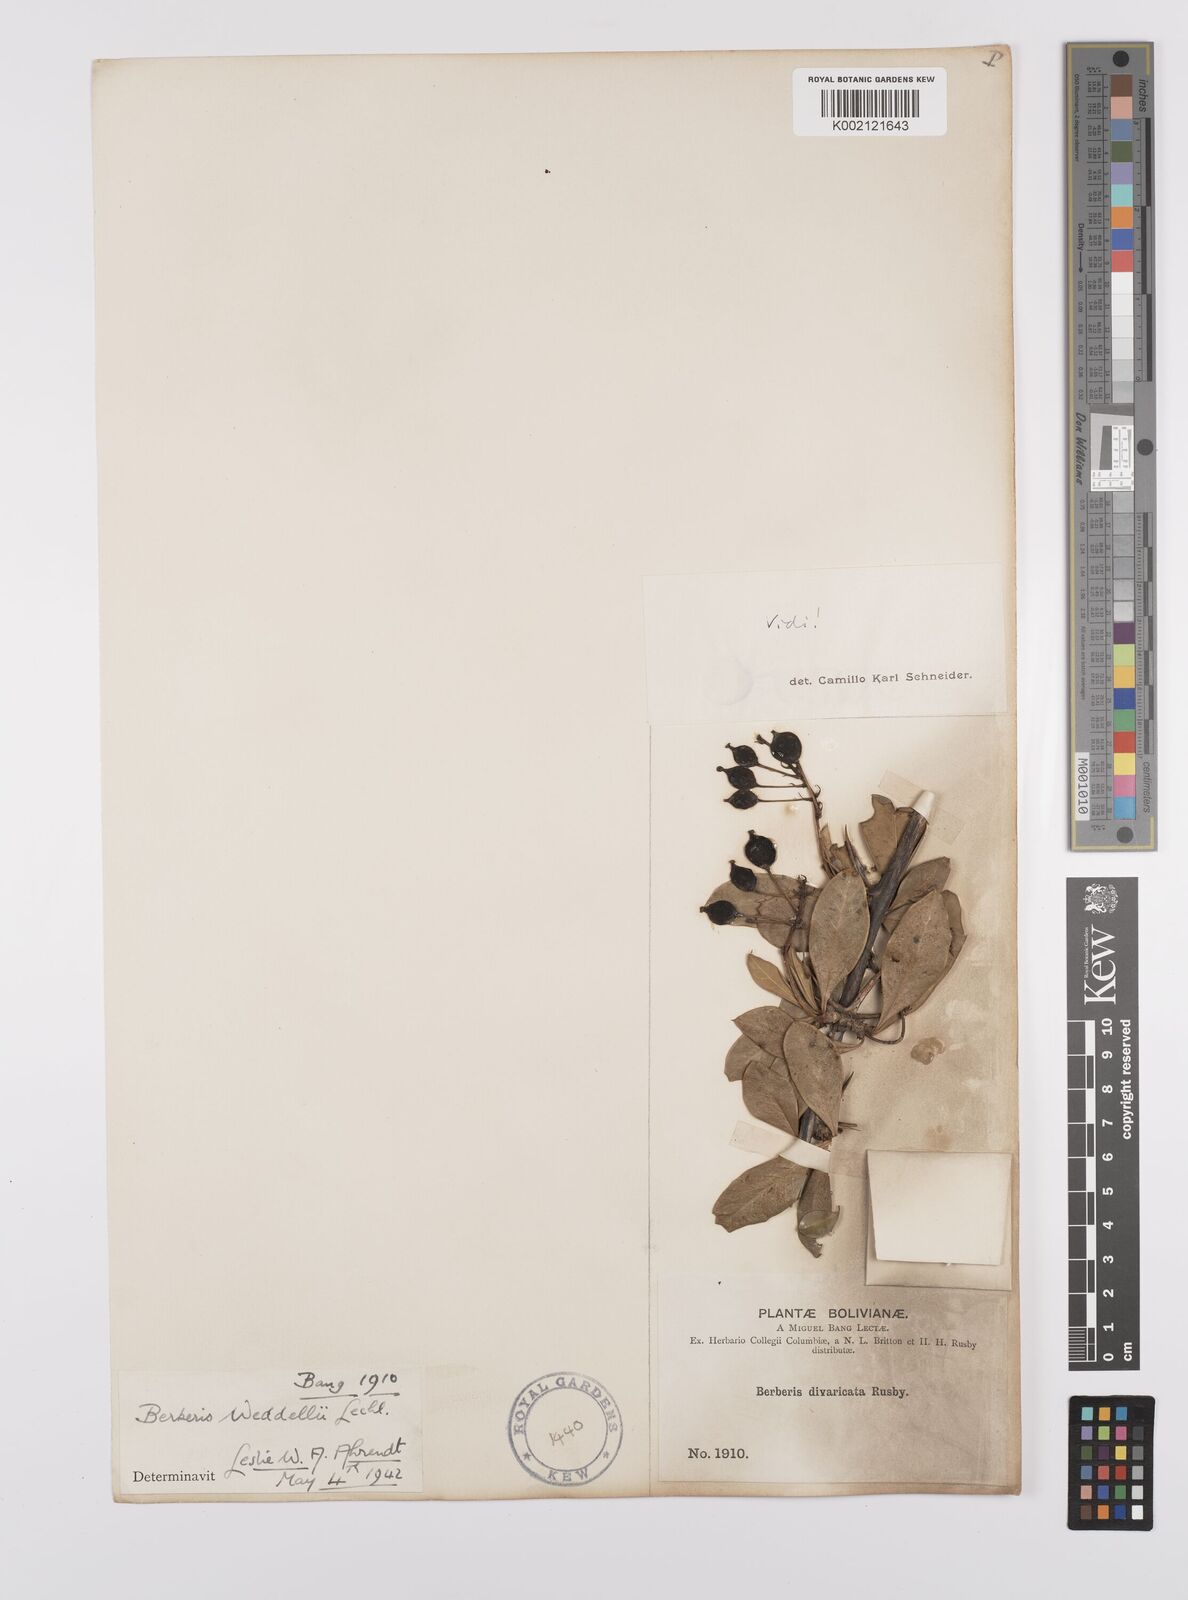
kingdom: Plantae
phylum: Tracheophyta
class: Magnoliopsida
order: Ranunculales
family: Berberidaceae
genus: Berberis
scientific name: Berberis commutata
